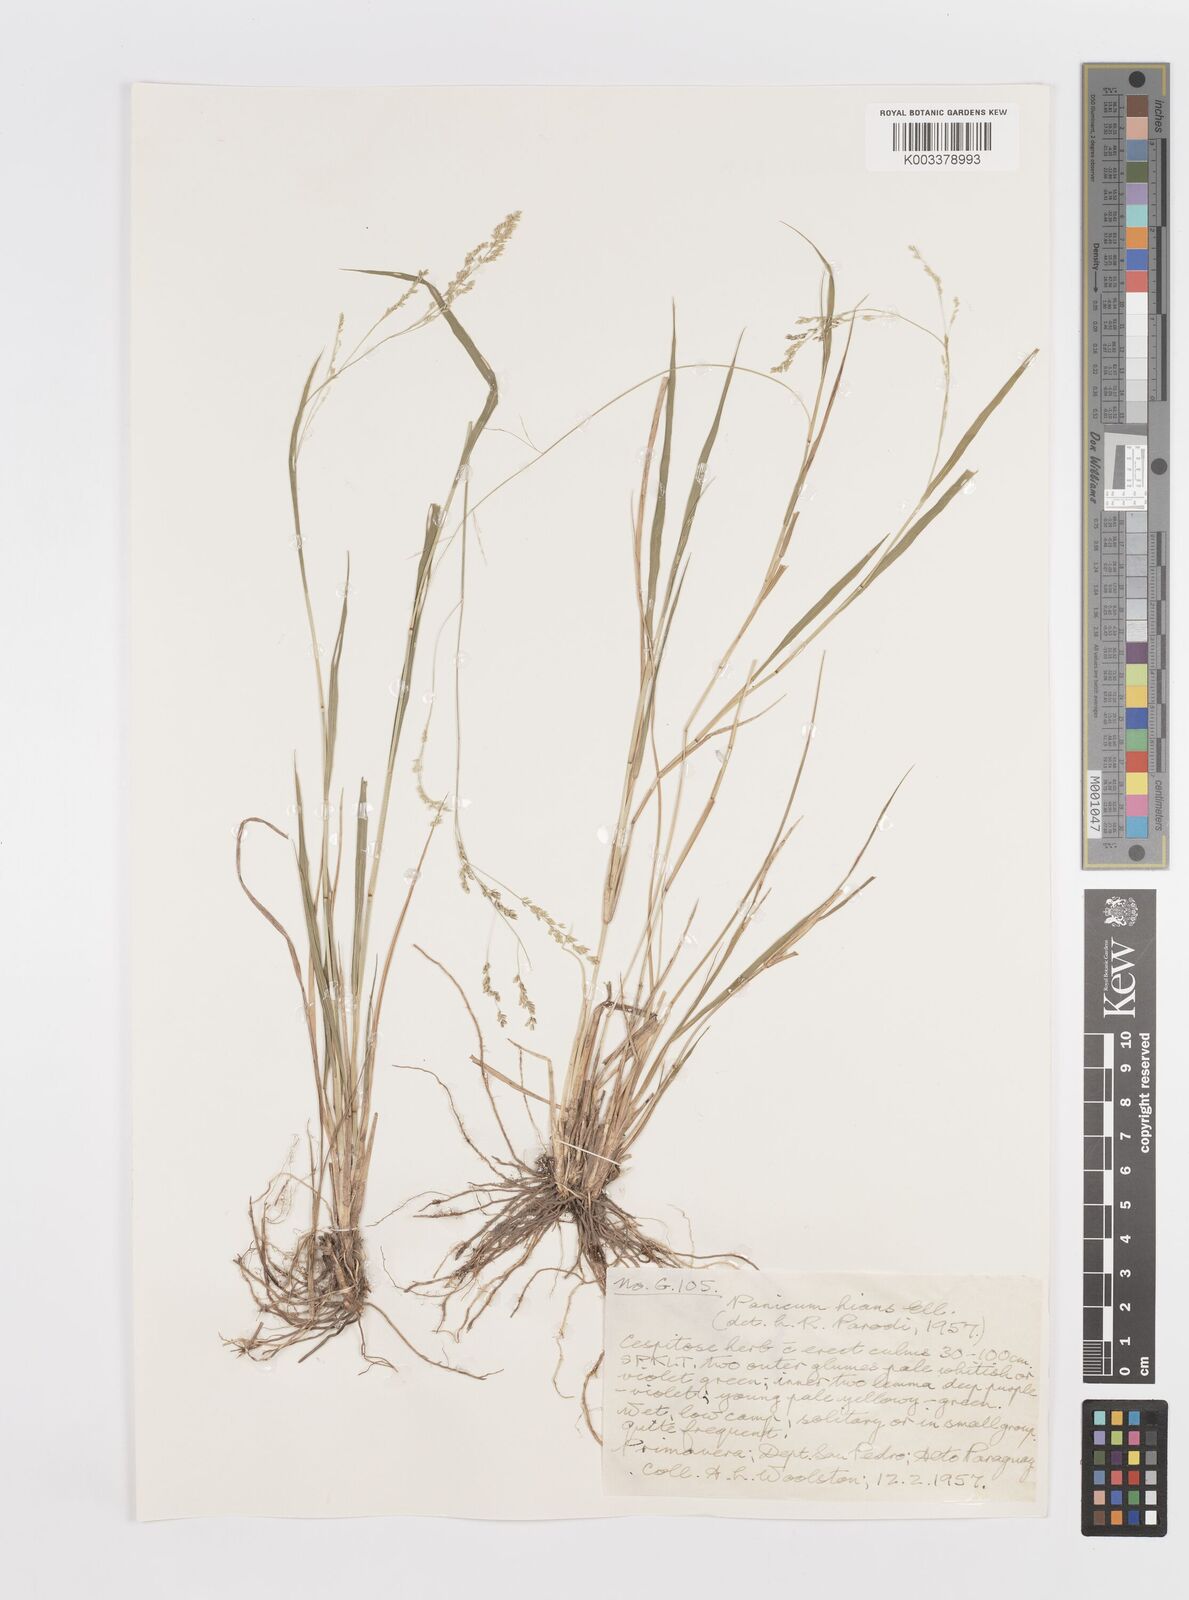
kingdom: Plantae
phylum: Tracheophyta
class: Liliopsida
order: Poales
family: Poaceae
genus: Steinchisma
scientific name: Steinchisma hians
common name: Gaping panic grass
